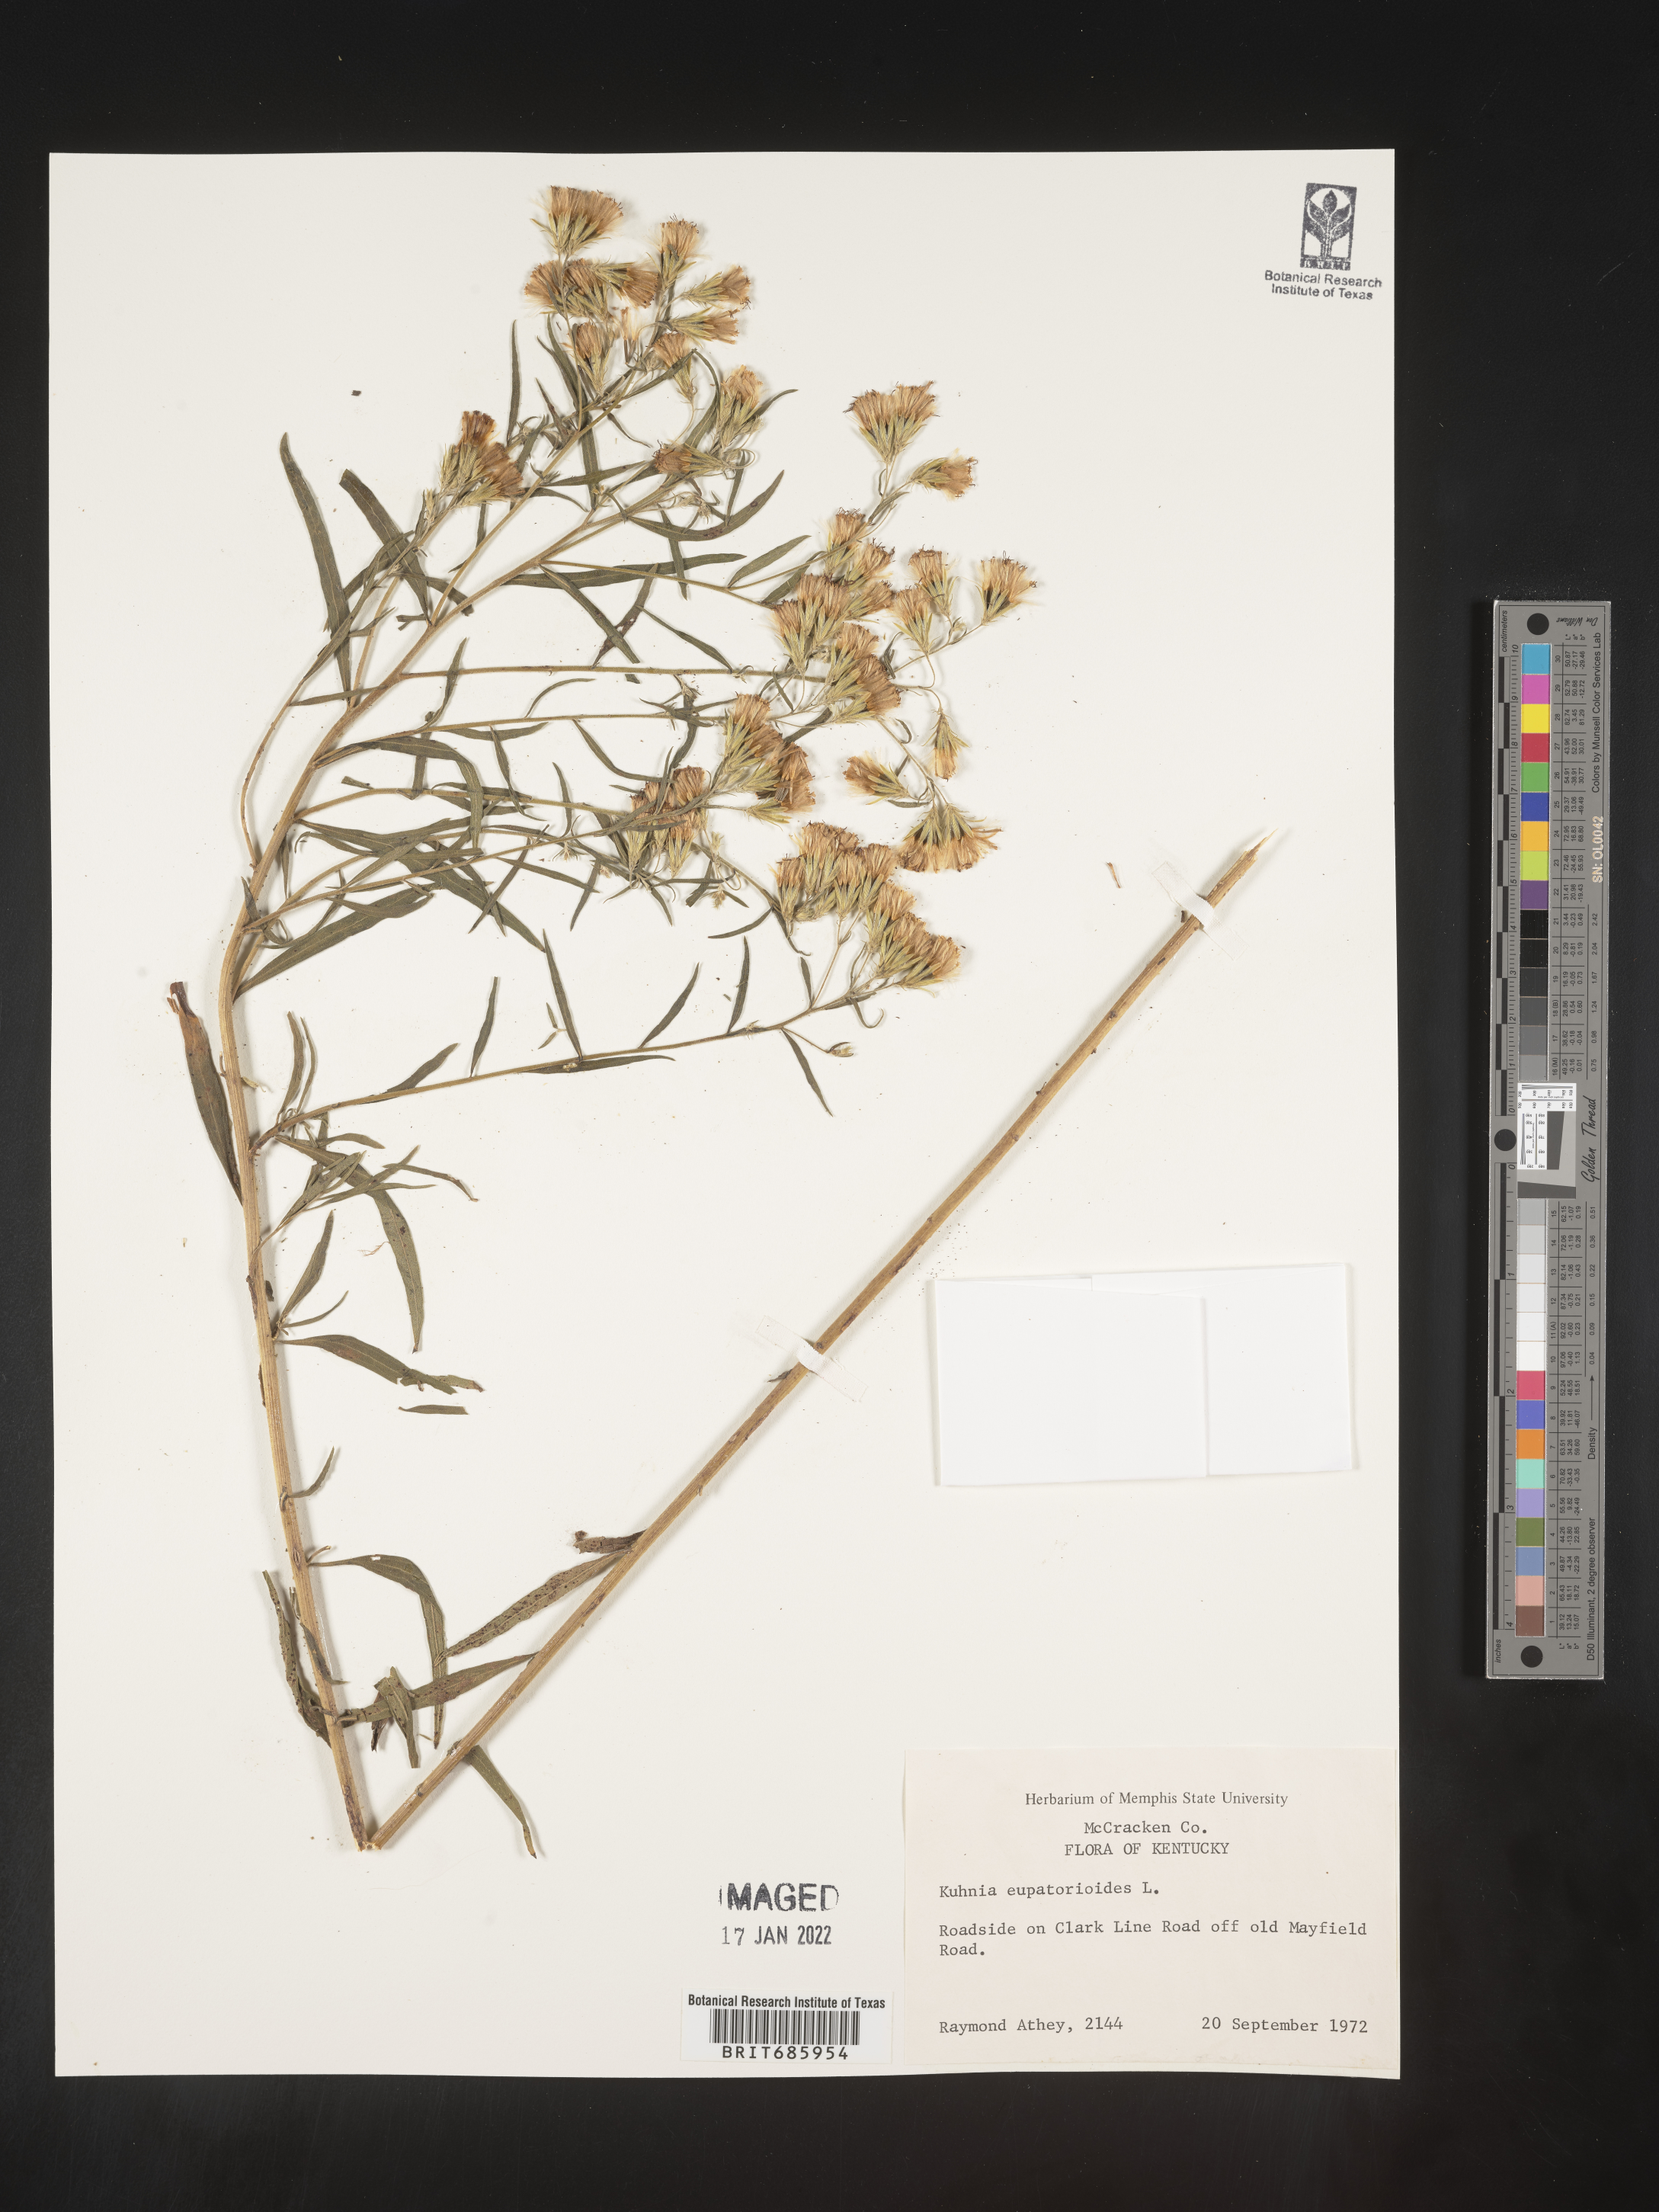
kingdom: Plantae
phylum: Tracheophyta
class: Magnoliopsida
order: Asterales
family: Asteraceae
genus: Brickellia
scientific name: Brickellia eupatorioides
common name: False boneset
